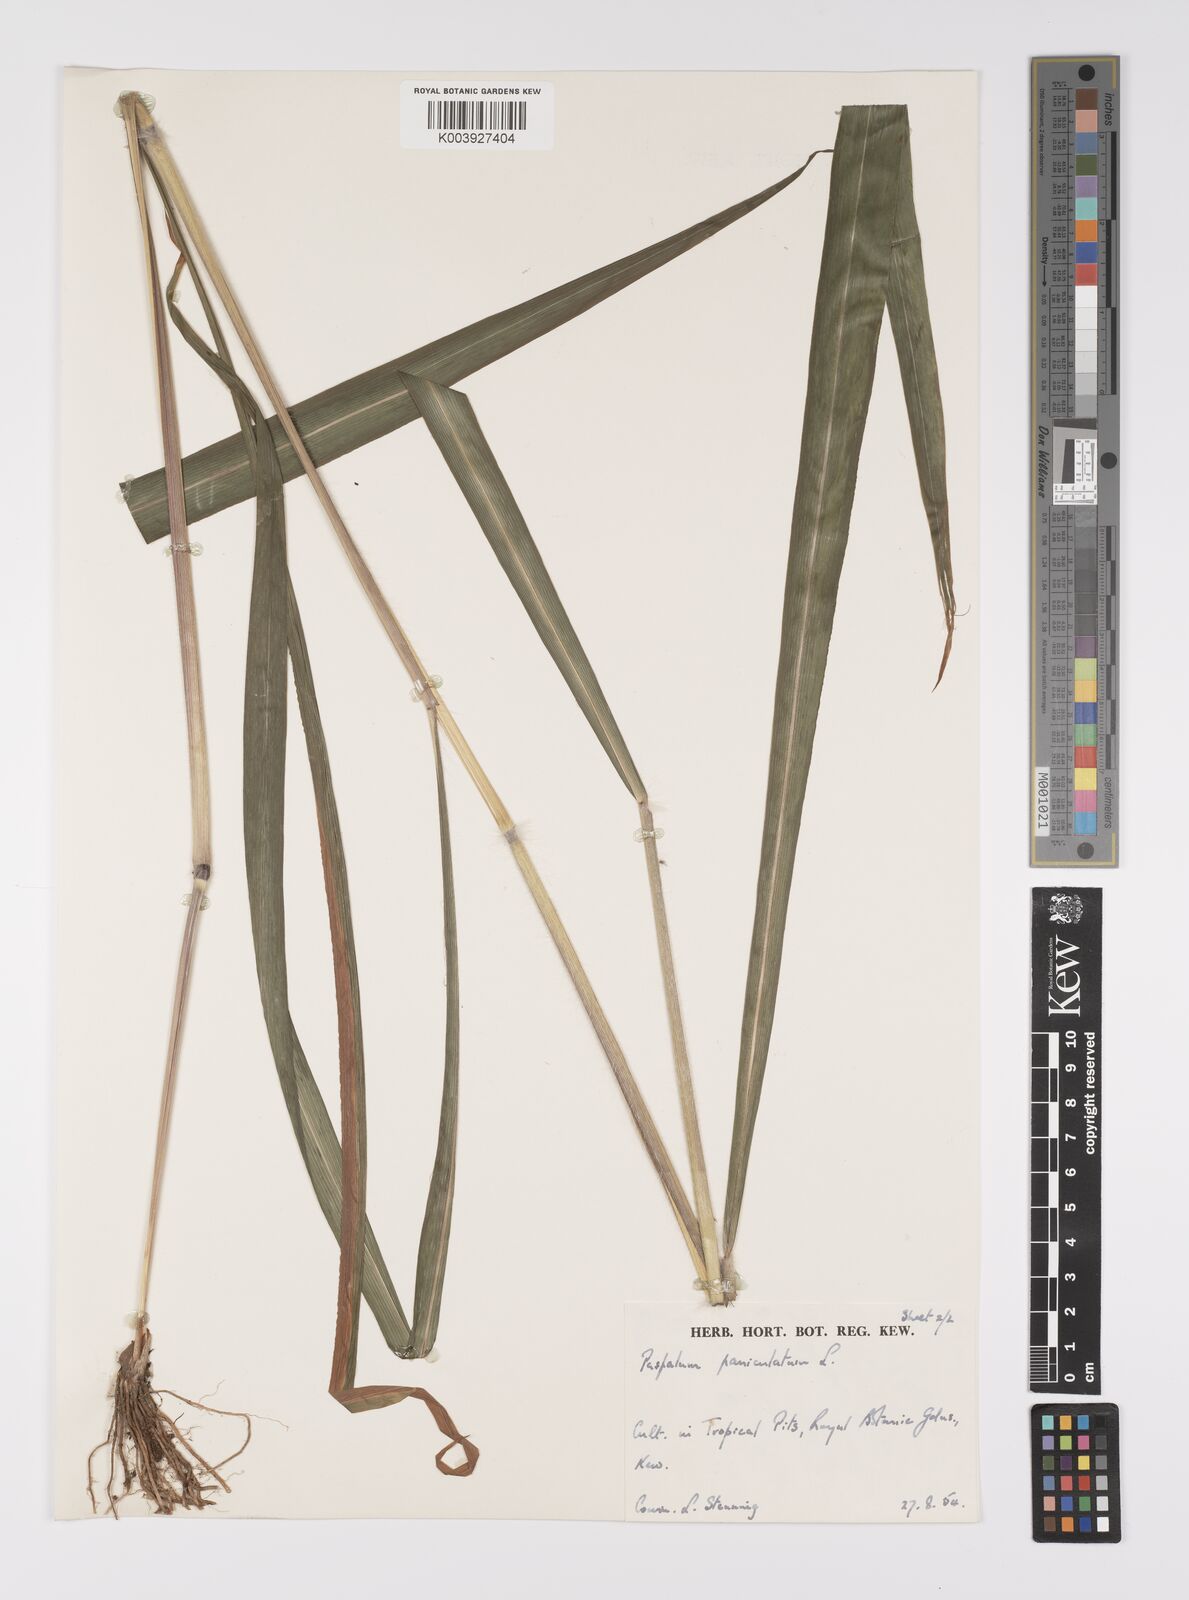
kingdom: Plantae
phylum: Tracheophyta
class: Liliopsida
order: Poales
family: Poaceae
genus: Paspalum
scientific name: Paspalum paniculatum
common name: Arrocillo
